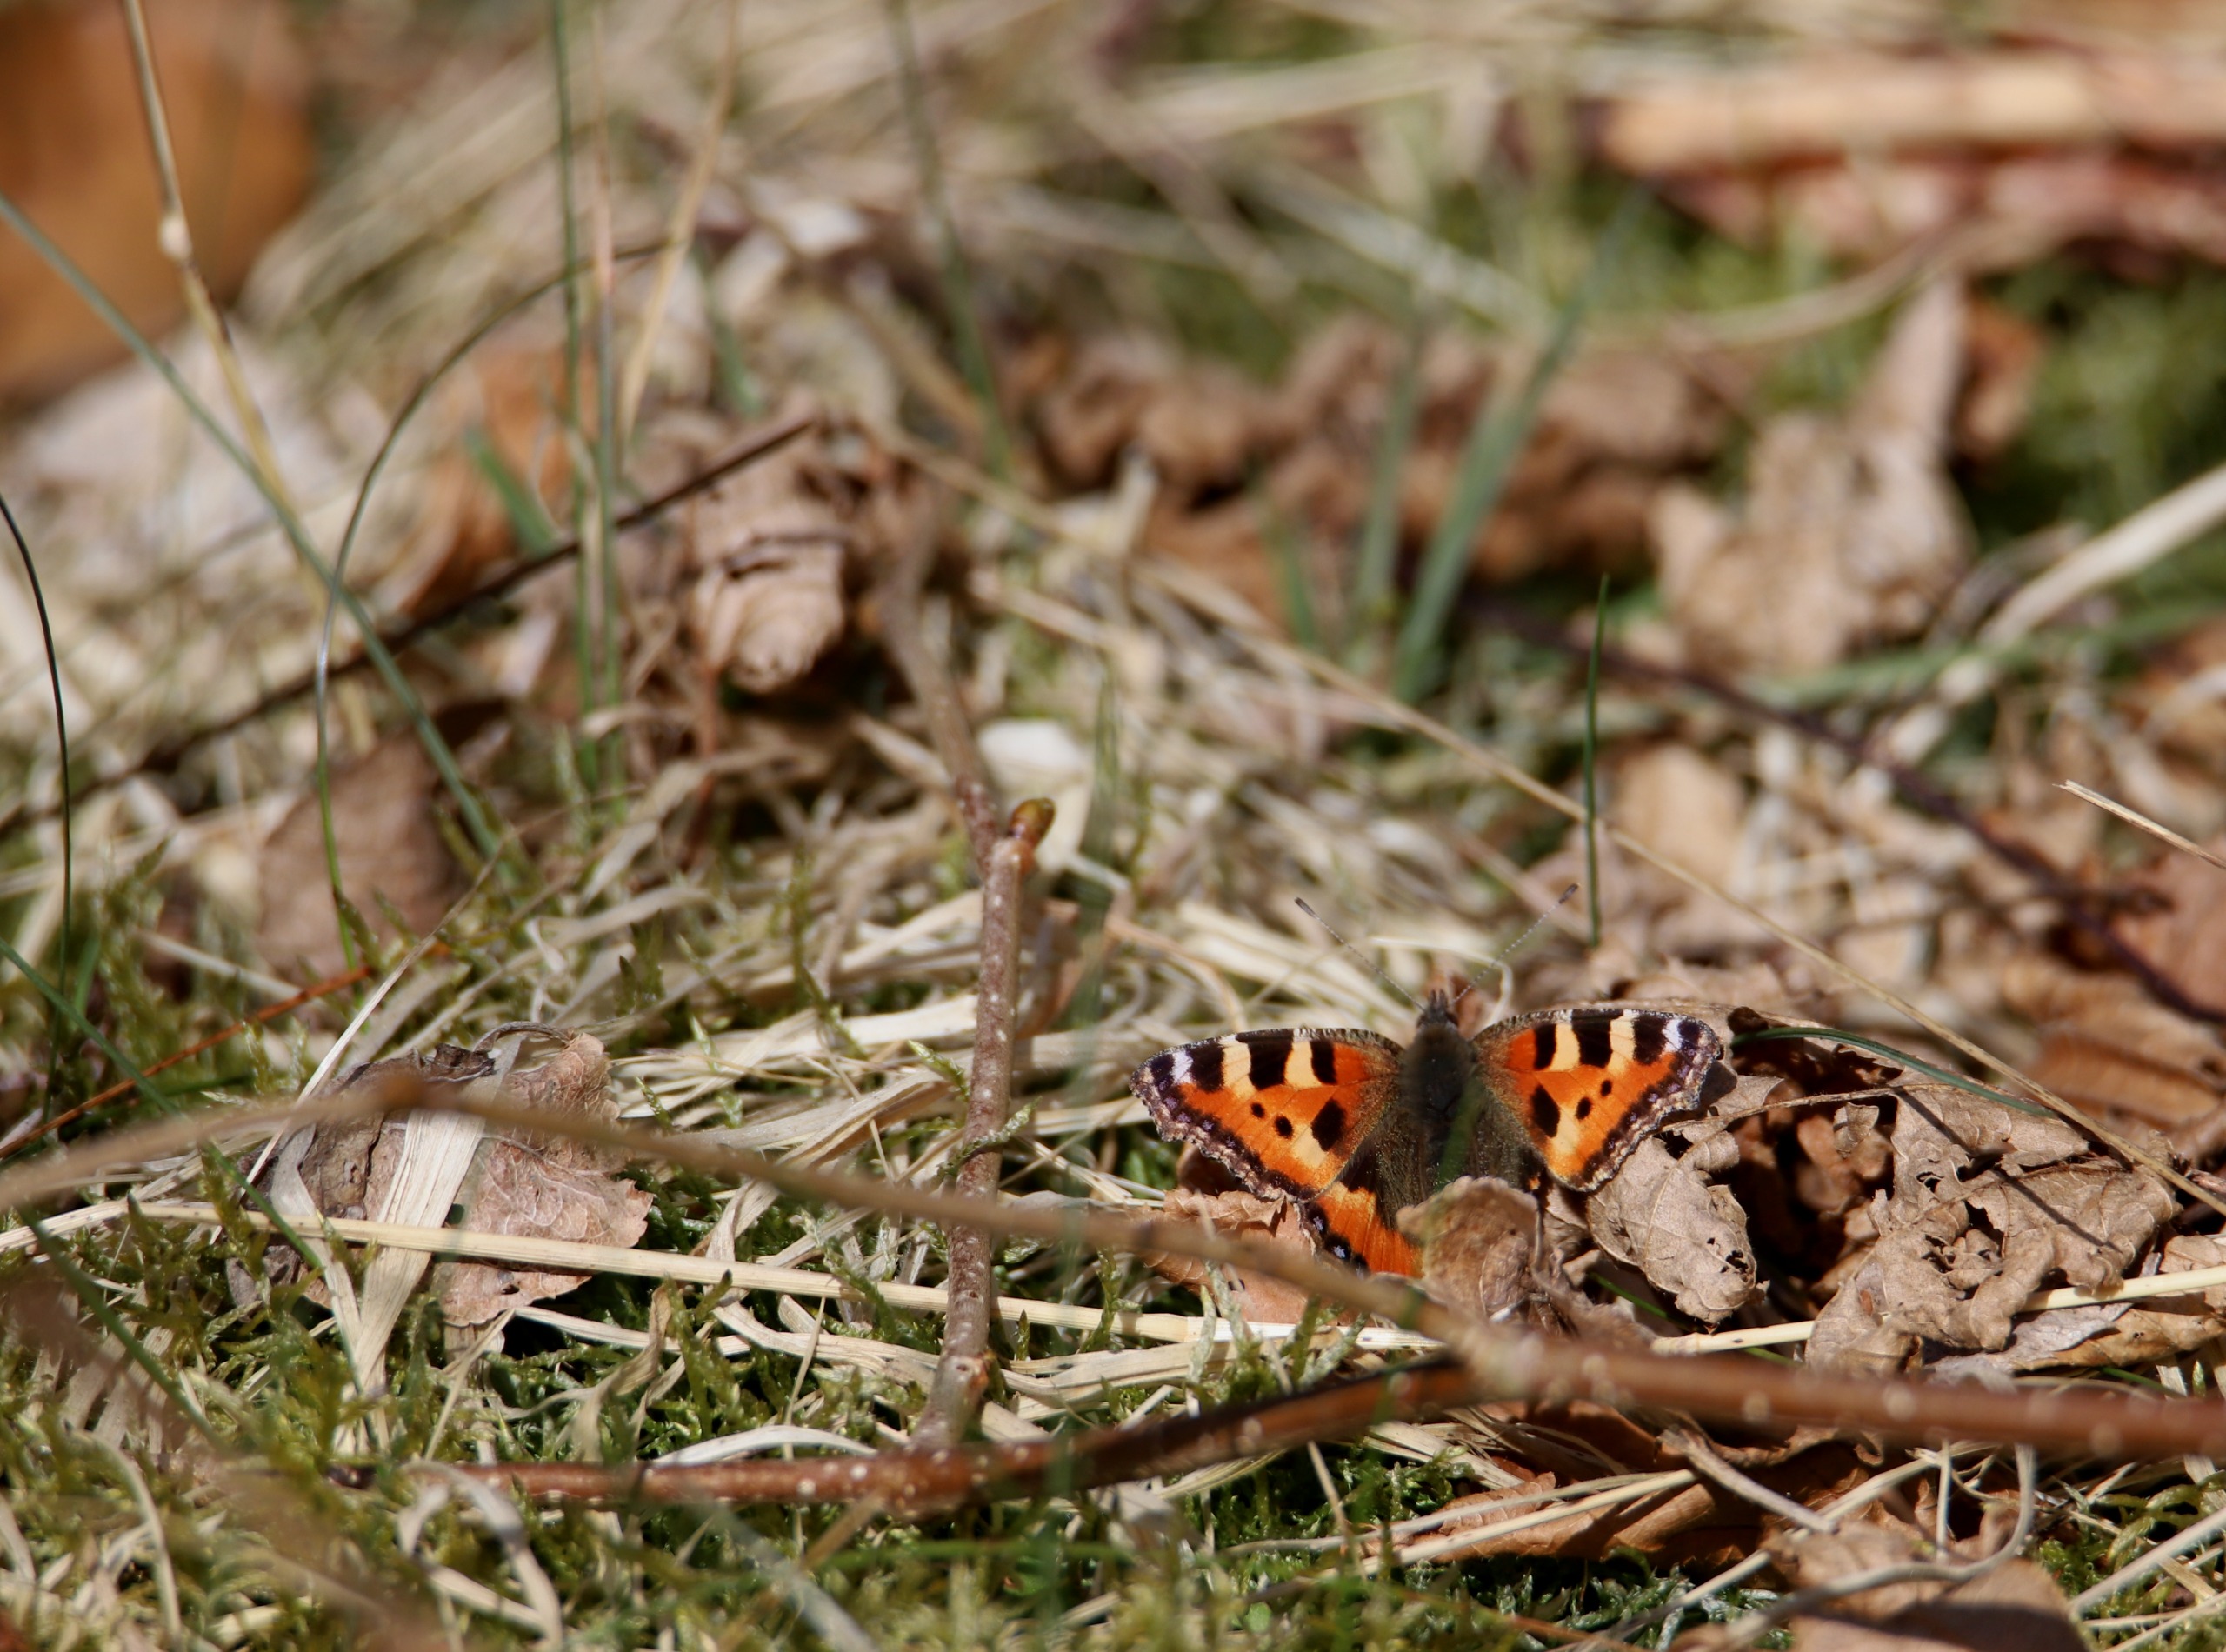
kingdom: Animalia
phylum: Arthropoda
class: Insecta
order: Lepidoptera
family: Nymphalidae
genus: Aglais
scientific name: Aglais urticae
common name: Nældens takvinge
